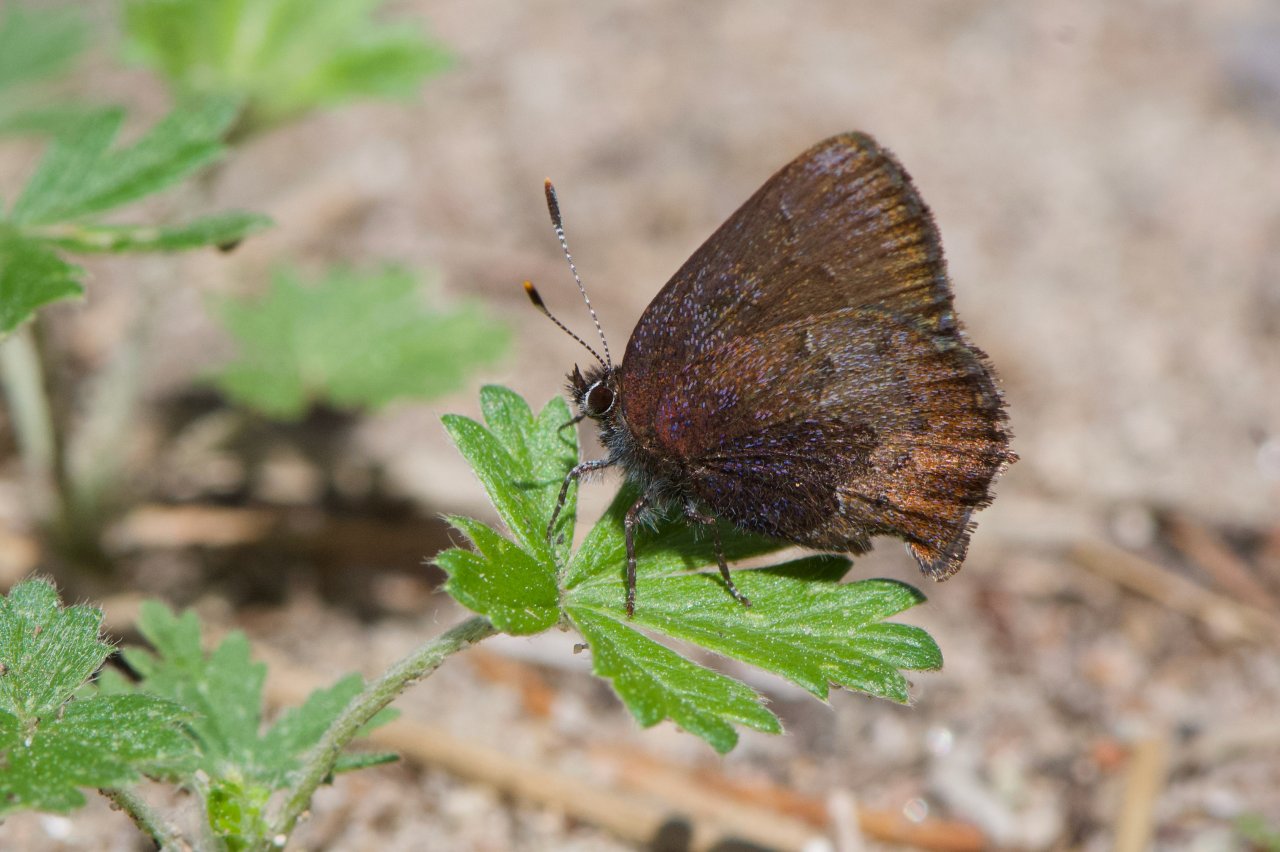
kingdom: Animalia
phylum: Arthropoda
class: Insecta
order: Lepidoptera
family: Lycaenidae
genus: Incisalia
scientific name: Incisalia irioides
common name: Brown Elfin
